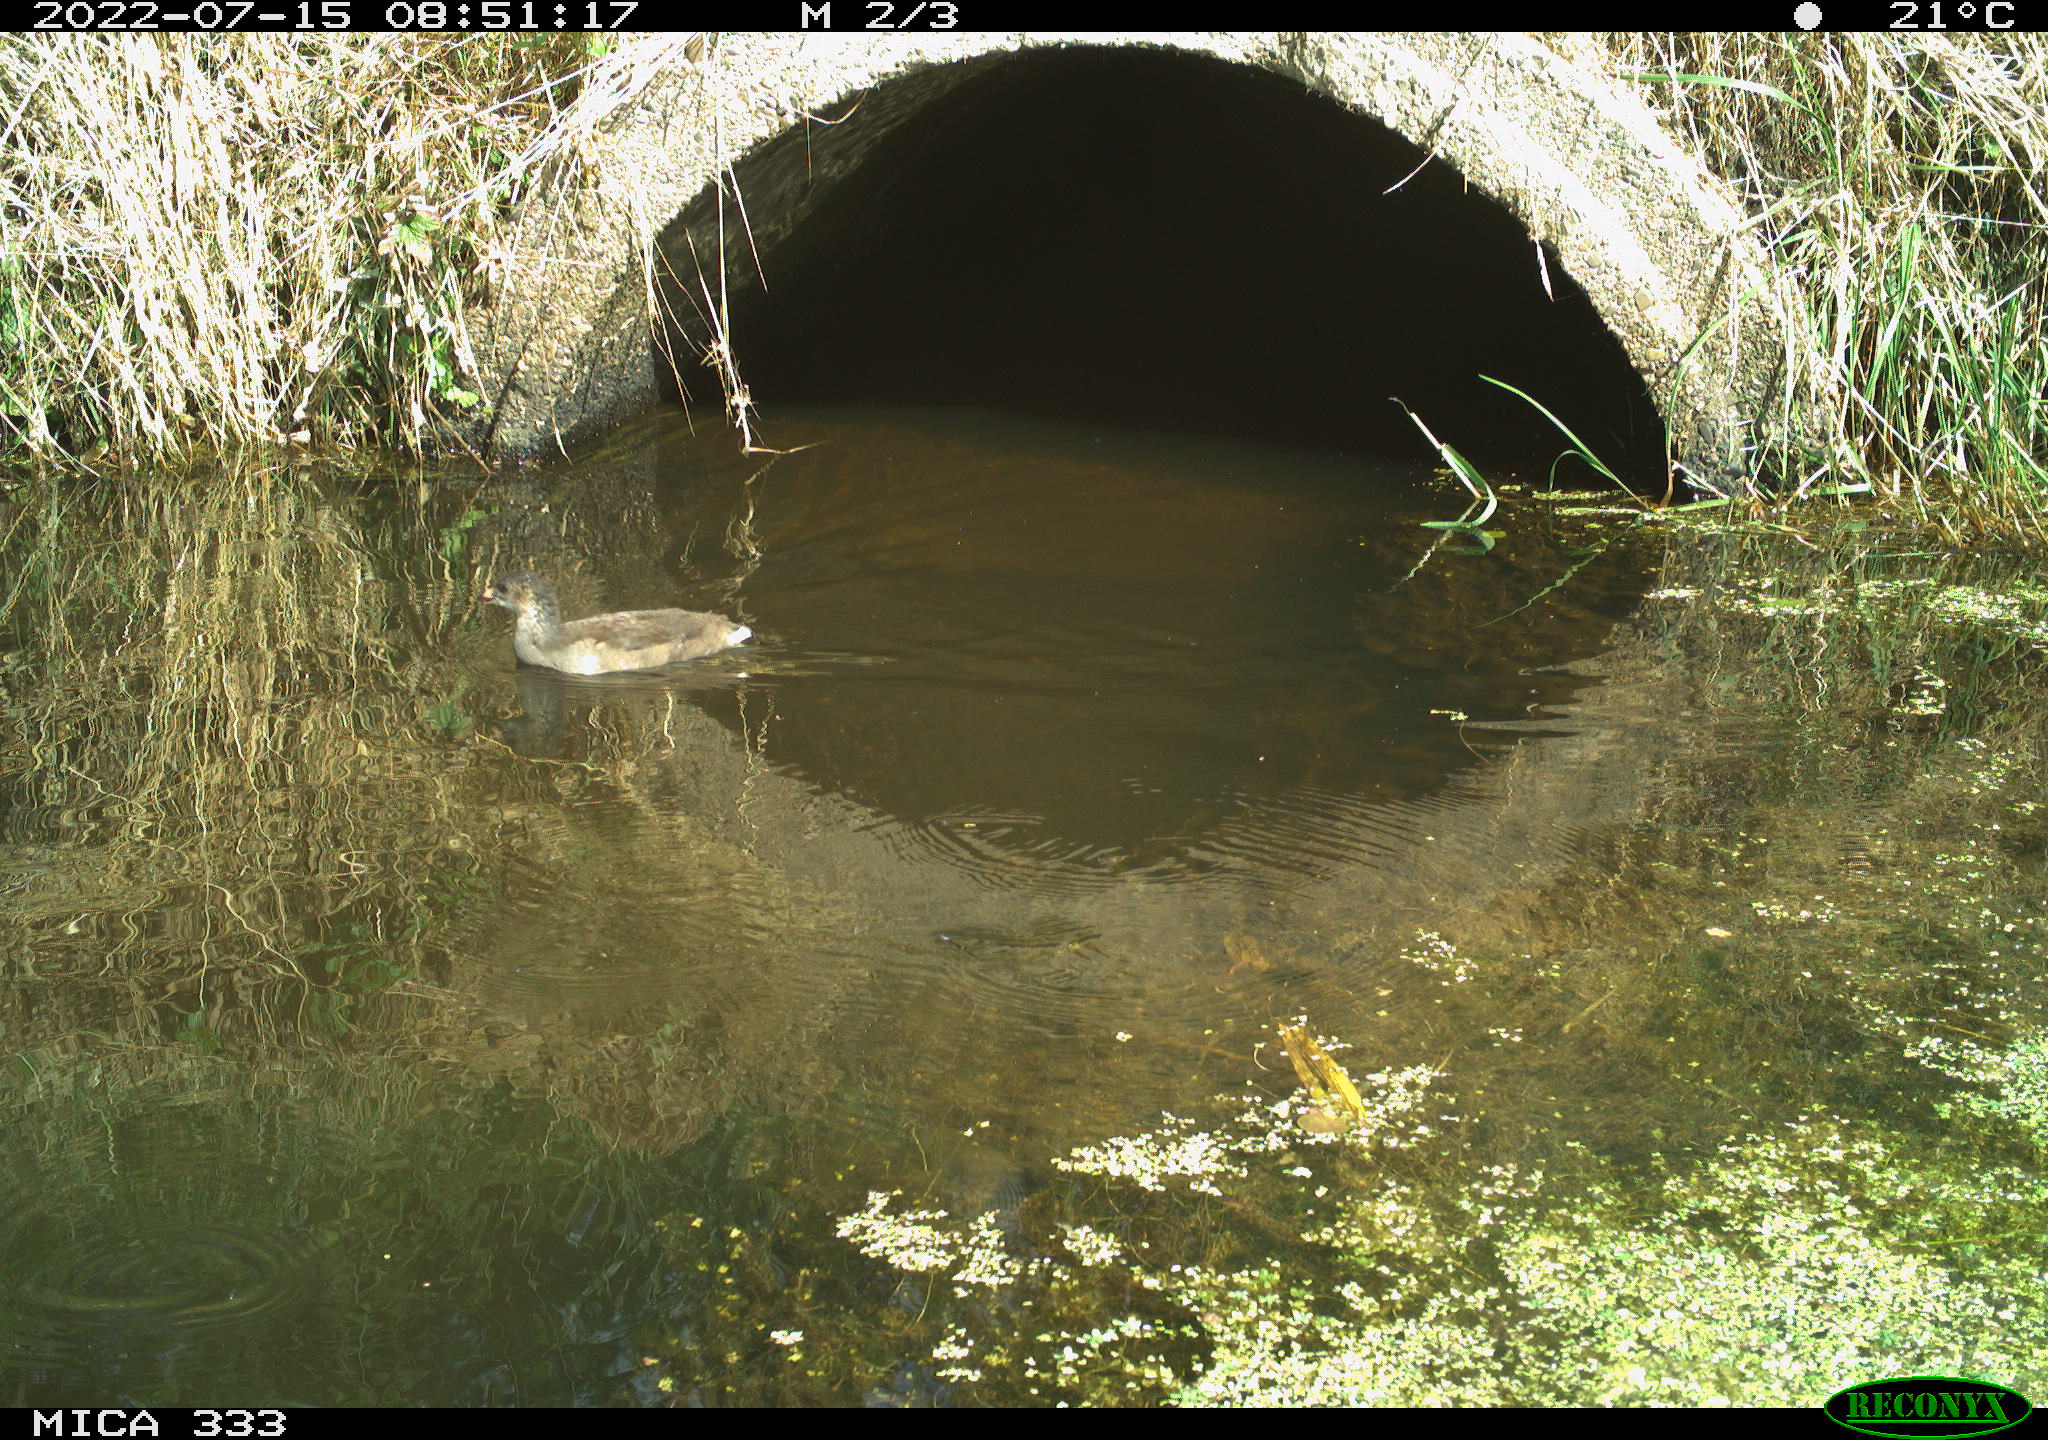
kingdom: Animalia
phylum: Chordata
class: Aves
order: Gruiformes
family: Rallidae
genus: Gallinula
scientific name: Gallinula chloropus
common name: Common moorhen
